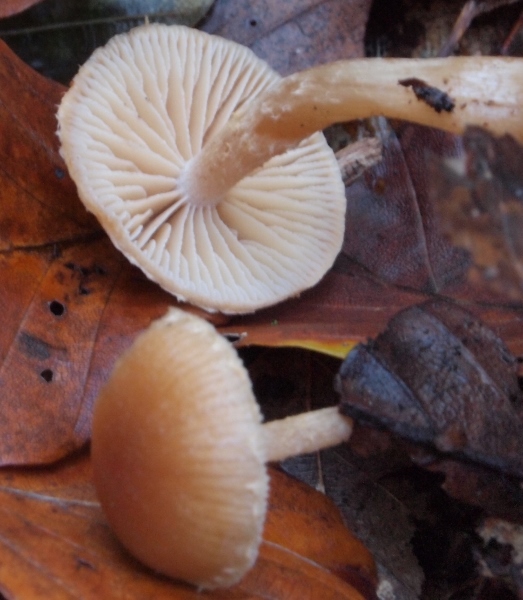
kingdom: Fungi
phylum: Basidiomycota
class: Agaricomycetes
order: Agaricales
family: Tubariaceae
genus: Tubaria
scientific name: Tubaria furfuracea
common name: kliddet fnughat
